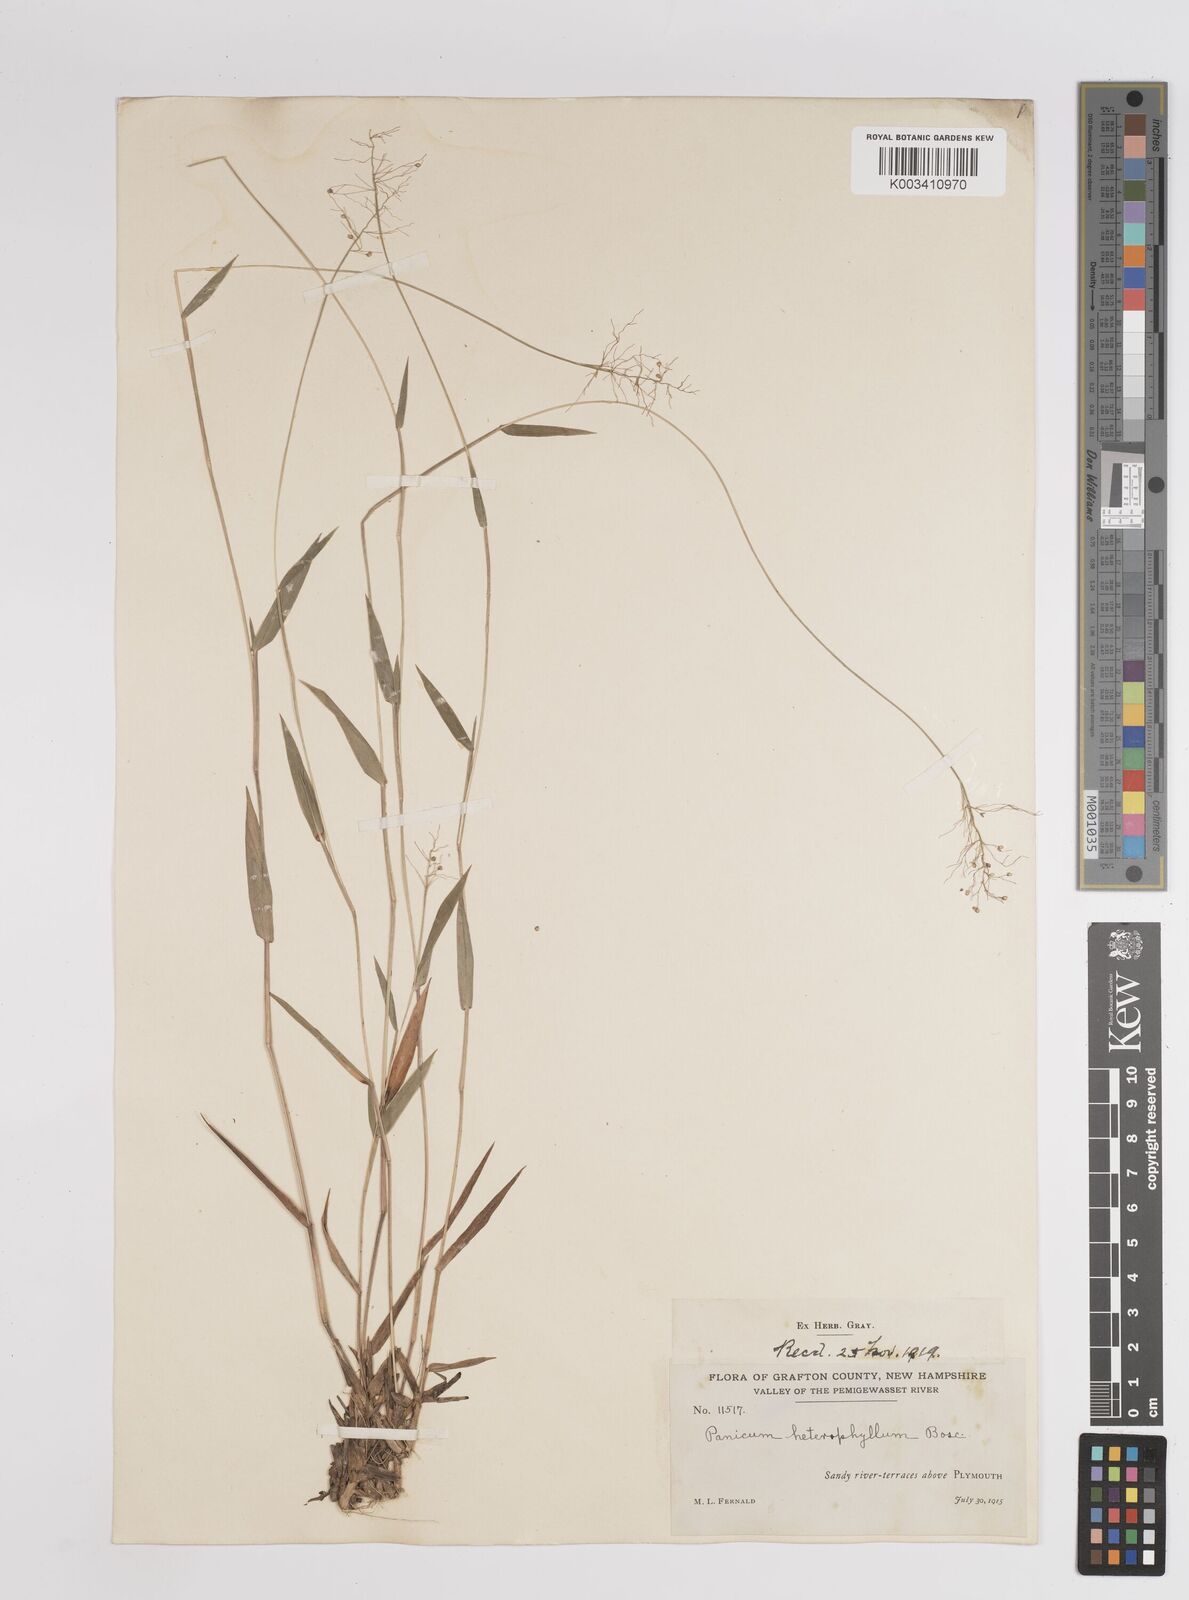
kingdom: Plantae
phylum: Tracheophyta
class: Liliopsida
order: Poales
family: Poaceae
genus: Dichanthelium
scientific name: Dichanthelium columbianum
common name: Hemlock panic grass
